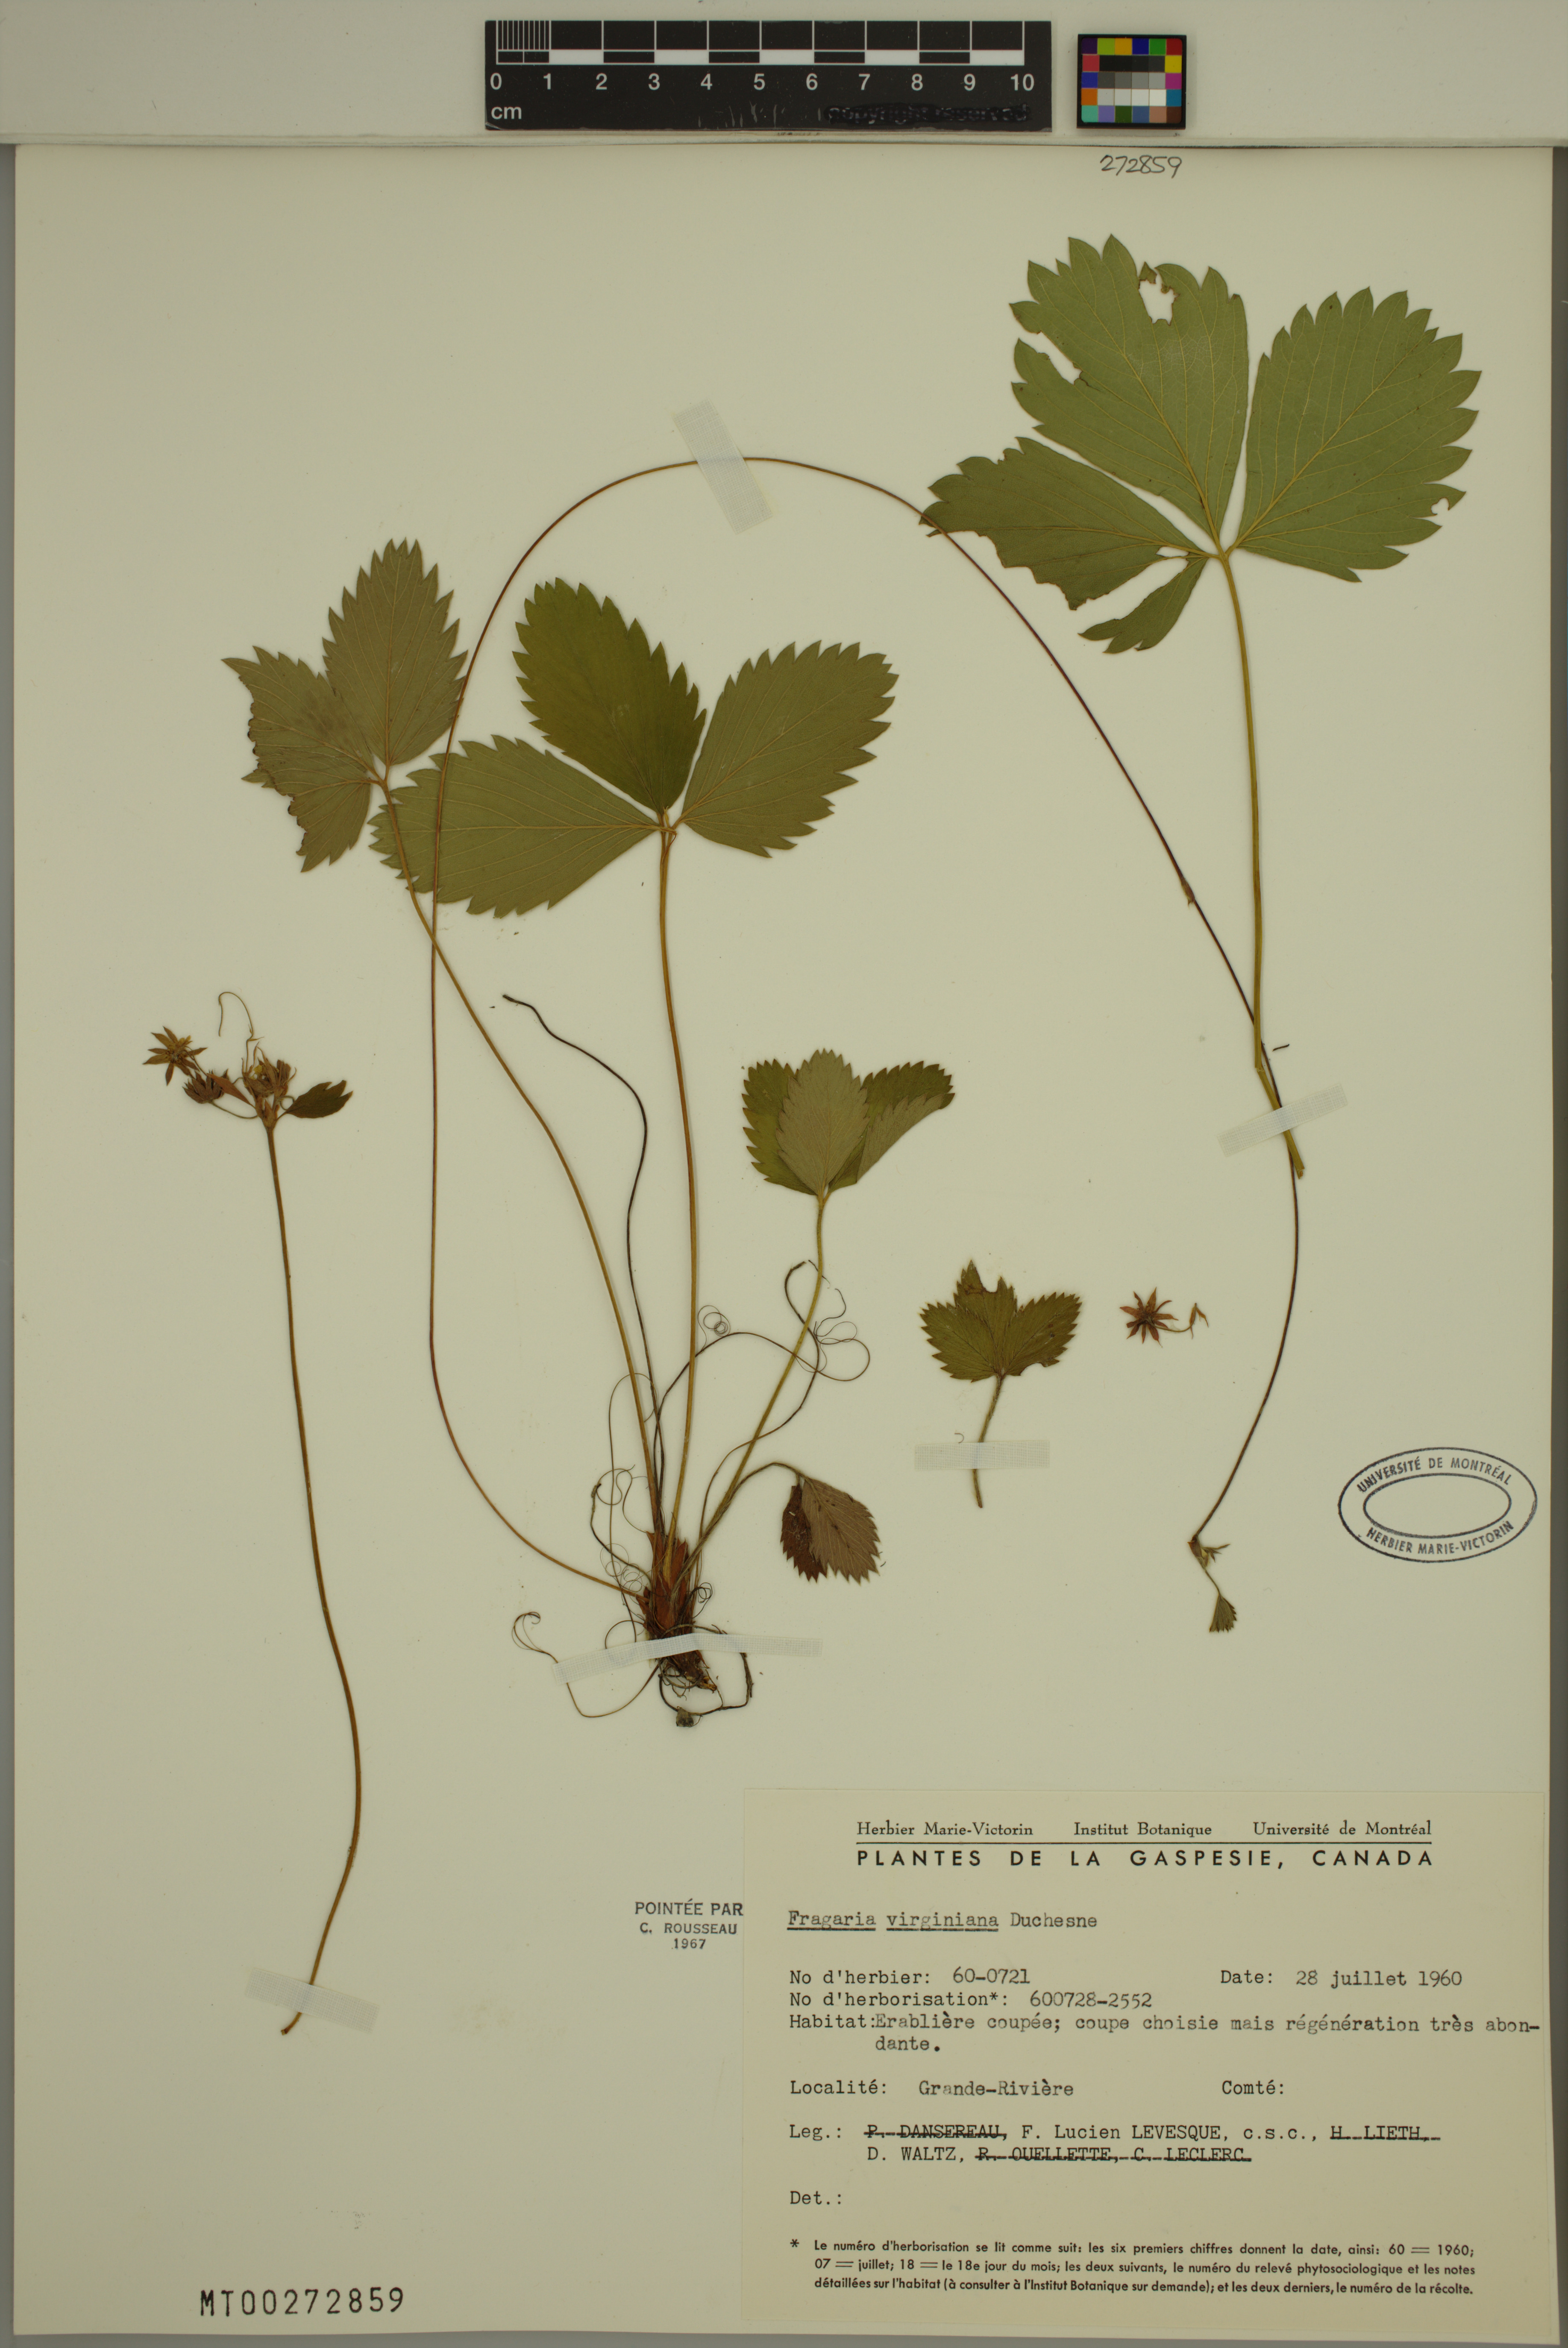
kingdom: Plantae
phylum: Tracheophyta
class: Magnoliopsida
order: Rosales
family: Rosaceae
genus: Fragaria
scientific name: Fragaria virginiana
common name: Thickleaved wild strawberry
